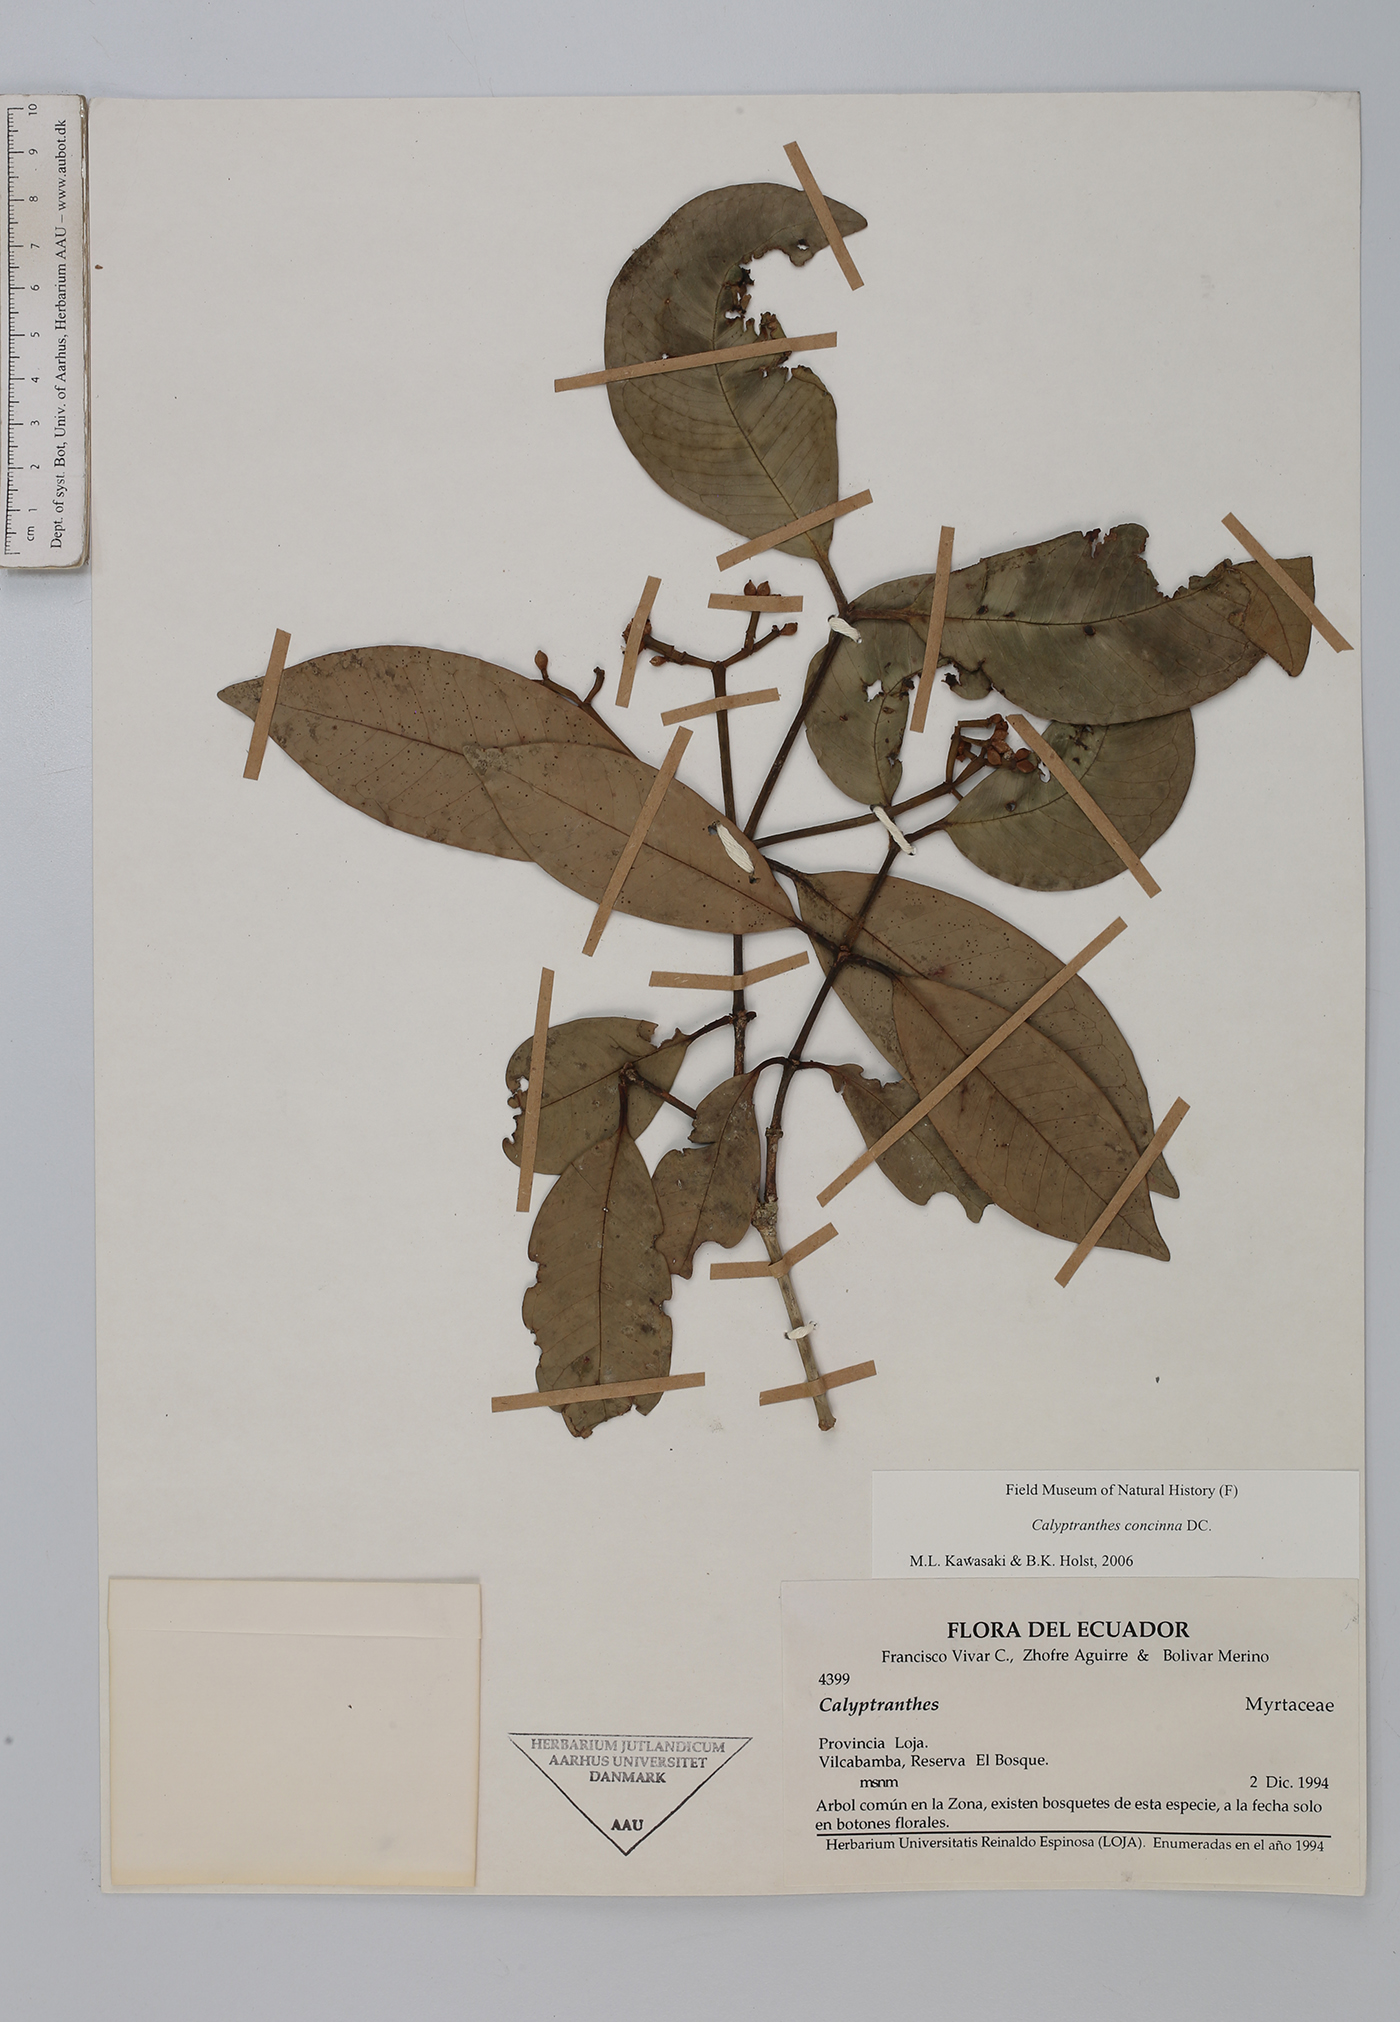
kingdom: Plantae
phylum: Tracheophyta
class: Magnoliopsida
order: Myrtales
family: Myrtaceae
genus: Myrcia
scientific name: Myrcia cruciflora
